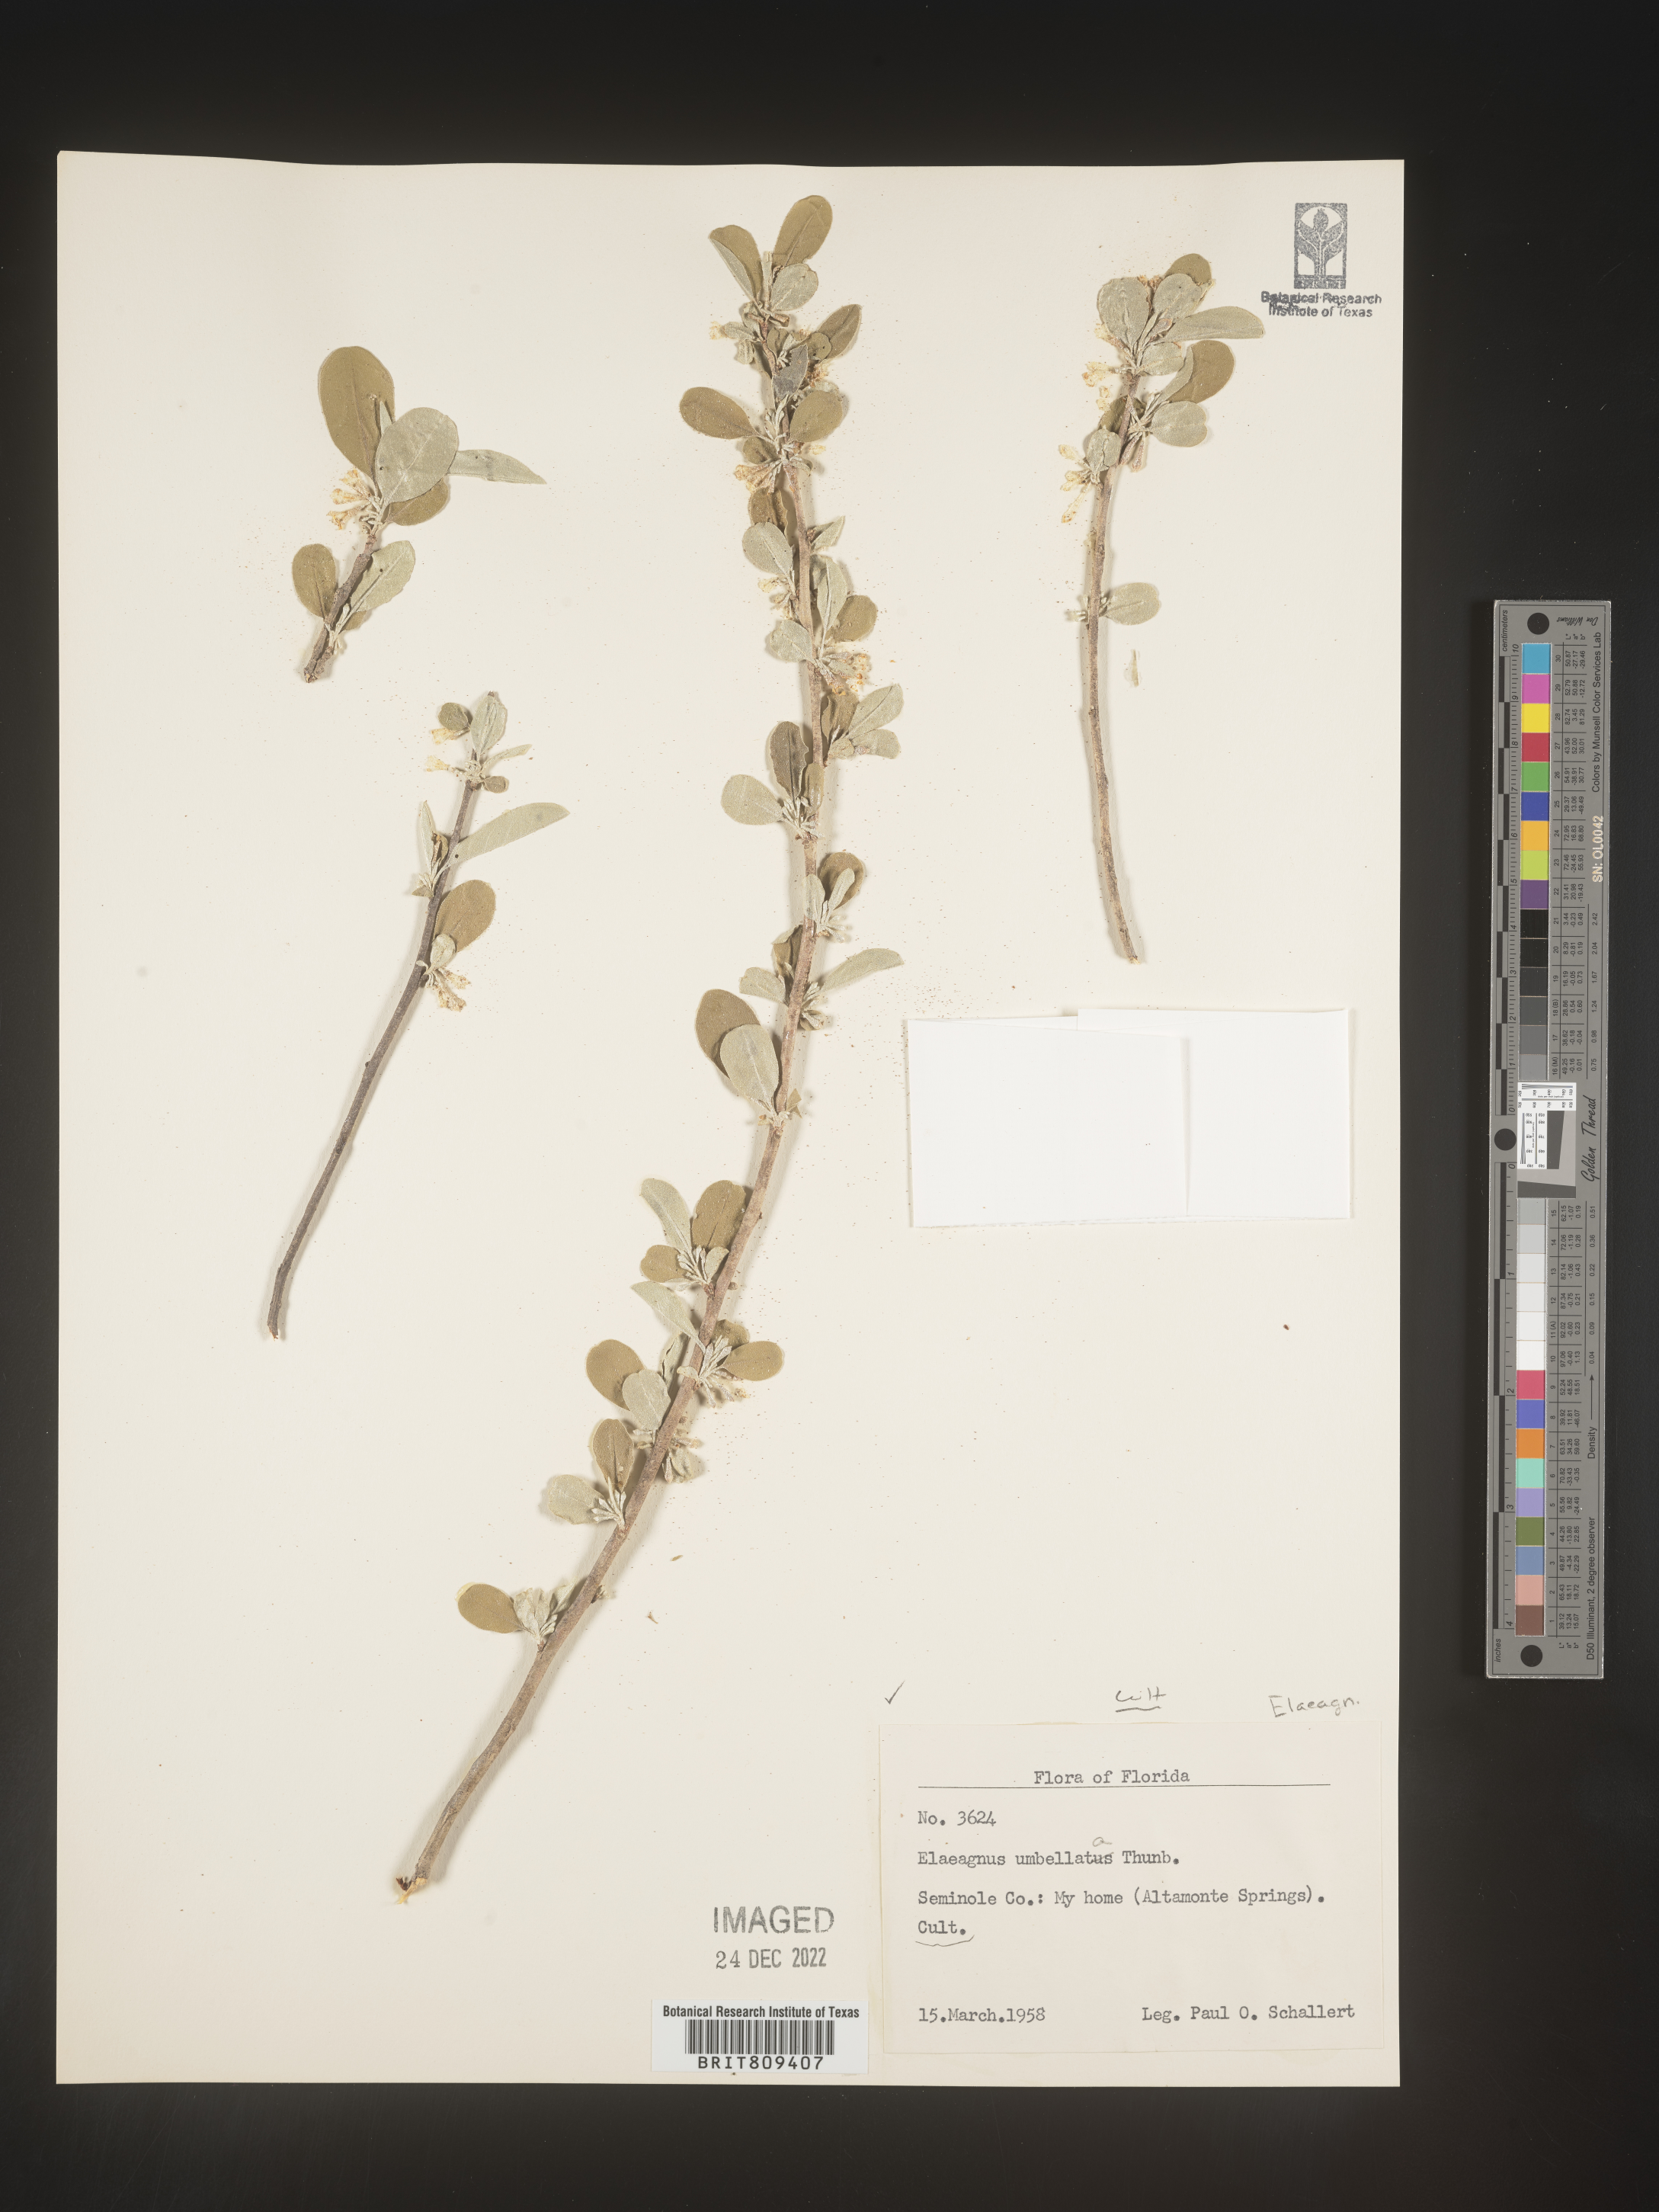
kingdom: Plantae
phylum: Tracheophyta
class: Magnoliopsida
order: Rosales
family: Elaeagnaceae
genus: Elaeagnus
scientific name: Elaeagnus
